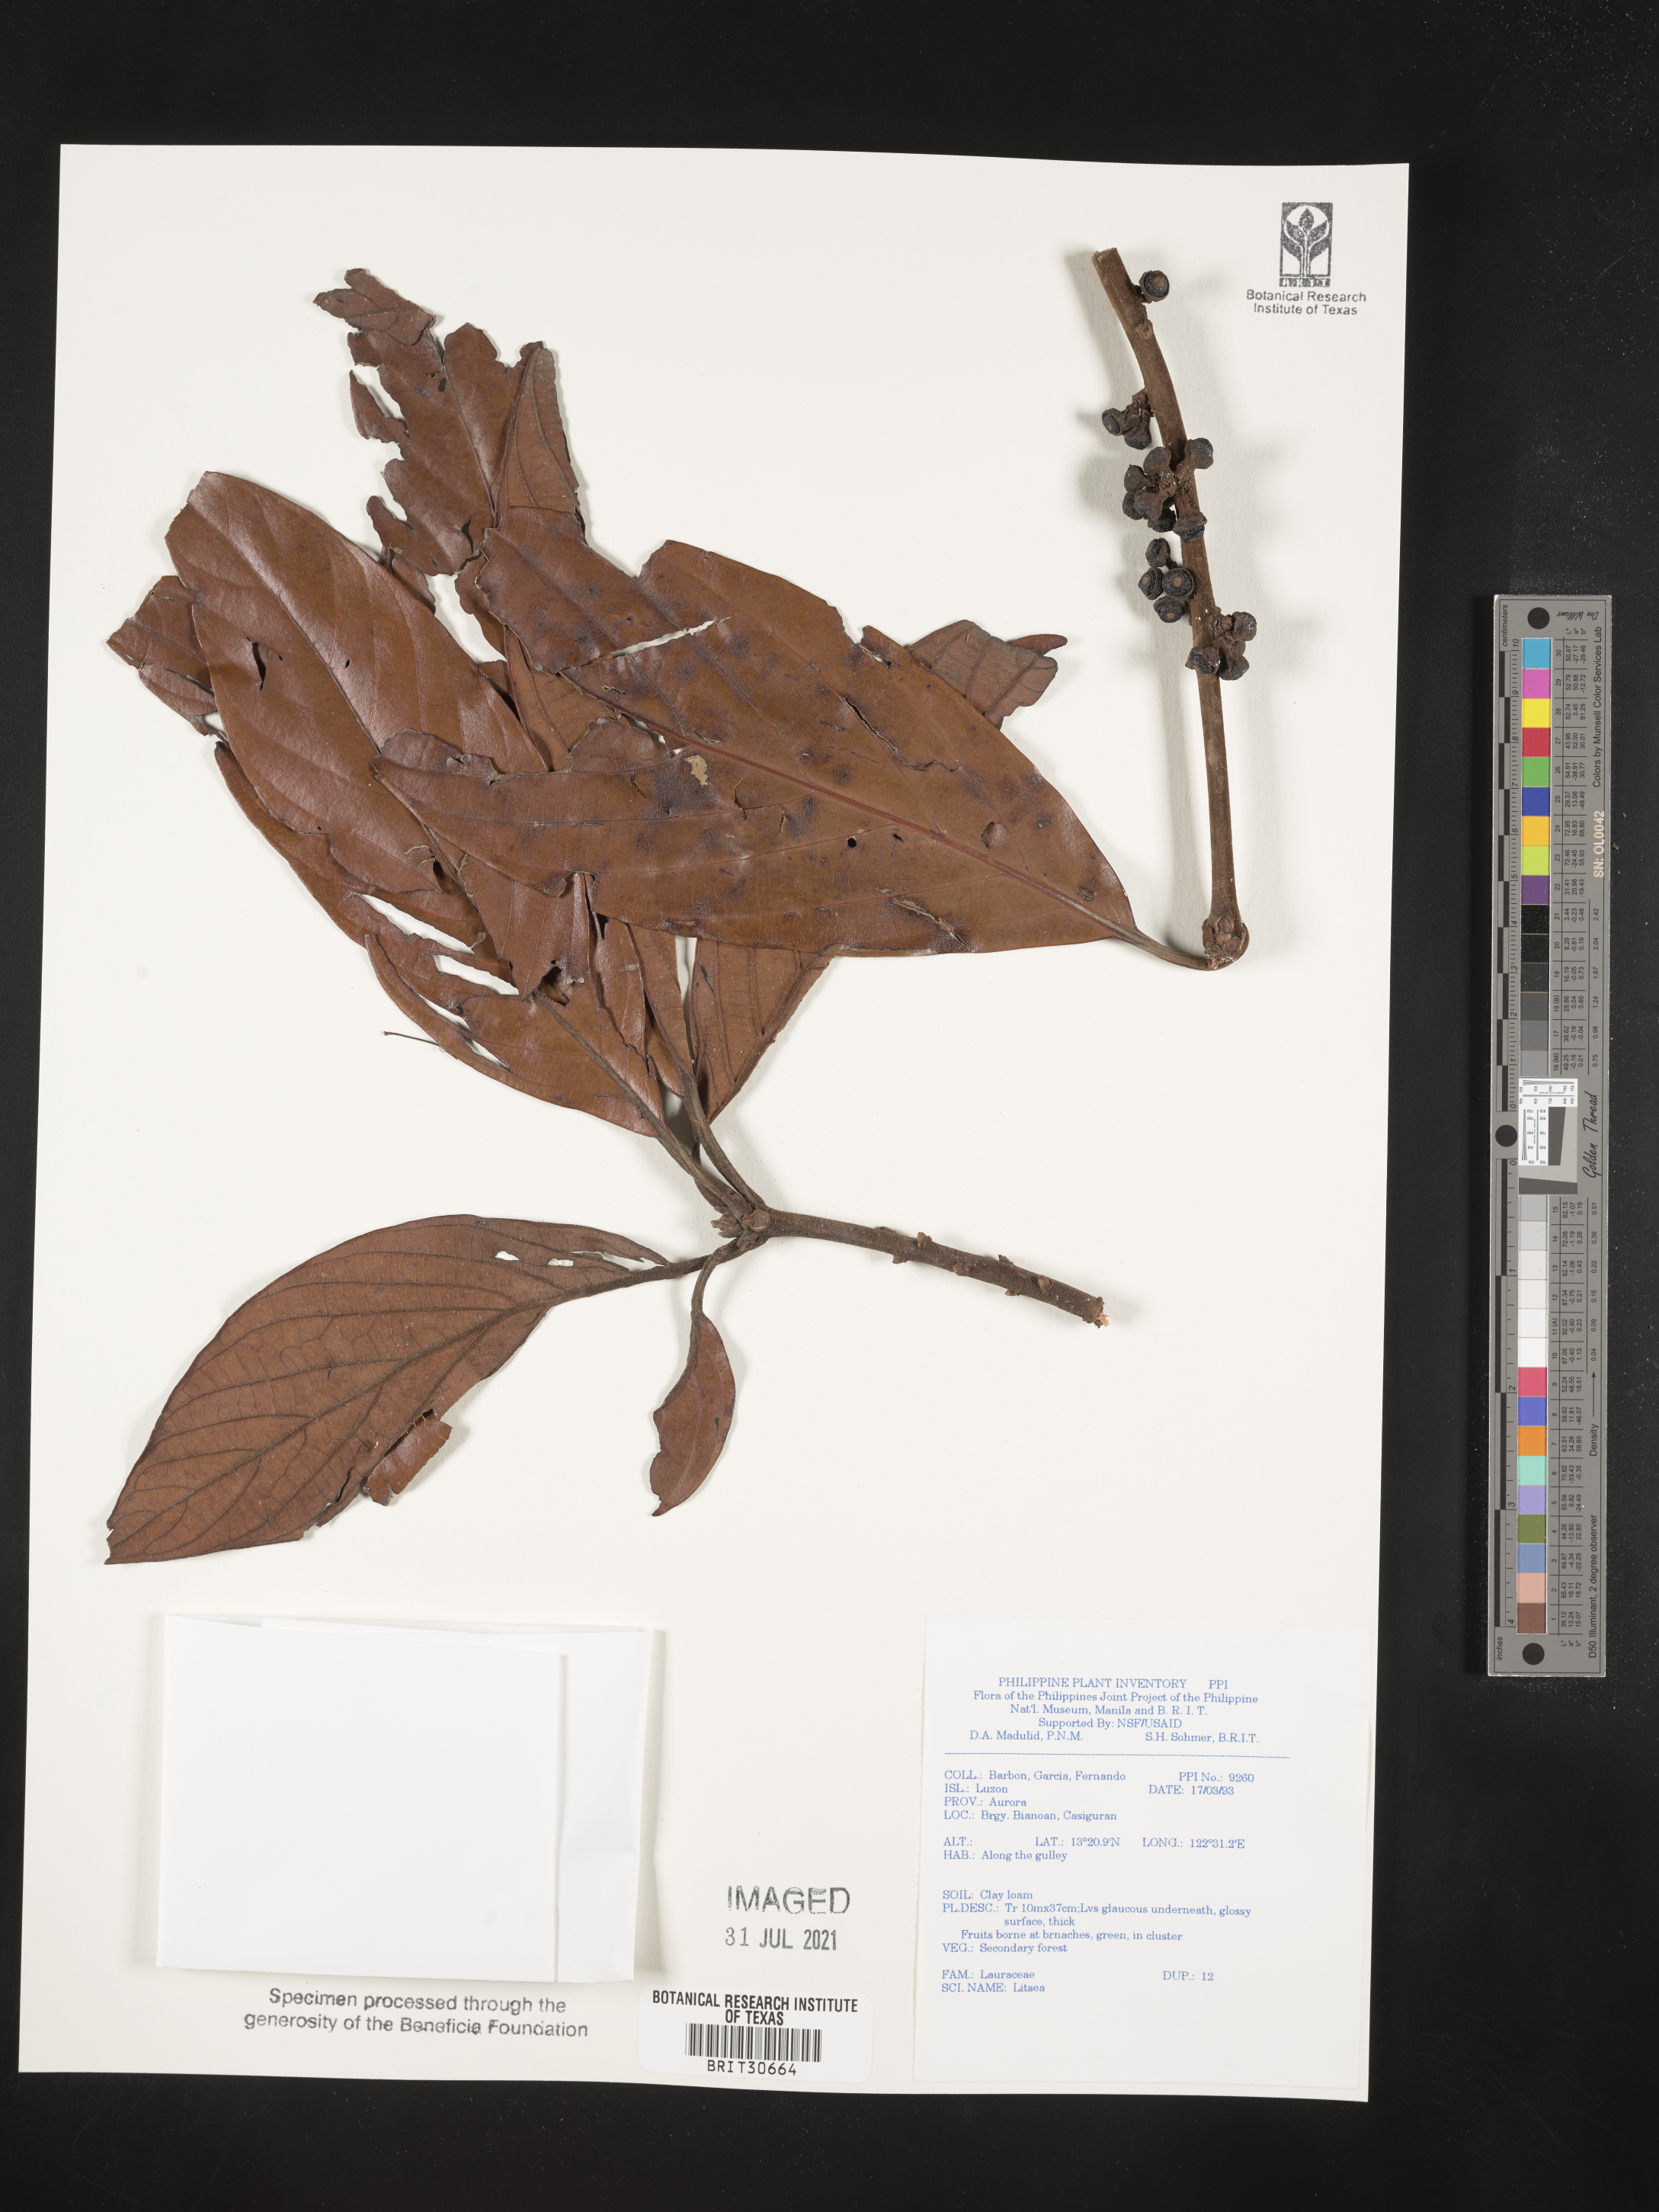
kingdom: Plantae
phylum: Tracheophyta
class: Magnoliopsida
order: Laurales
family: Lauraceae
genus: Litsea
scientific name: Litsea
